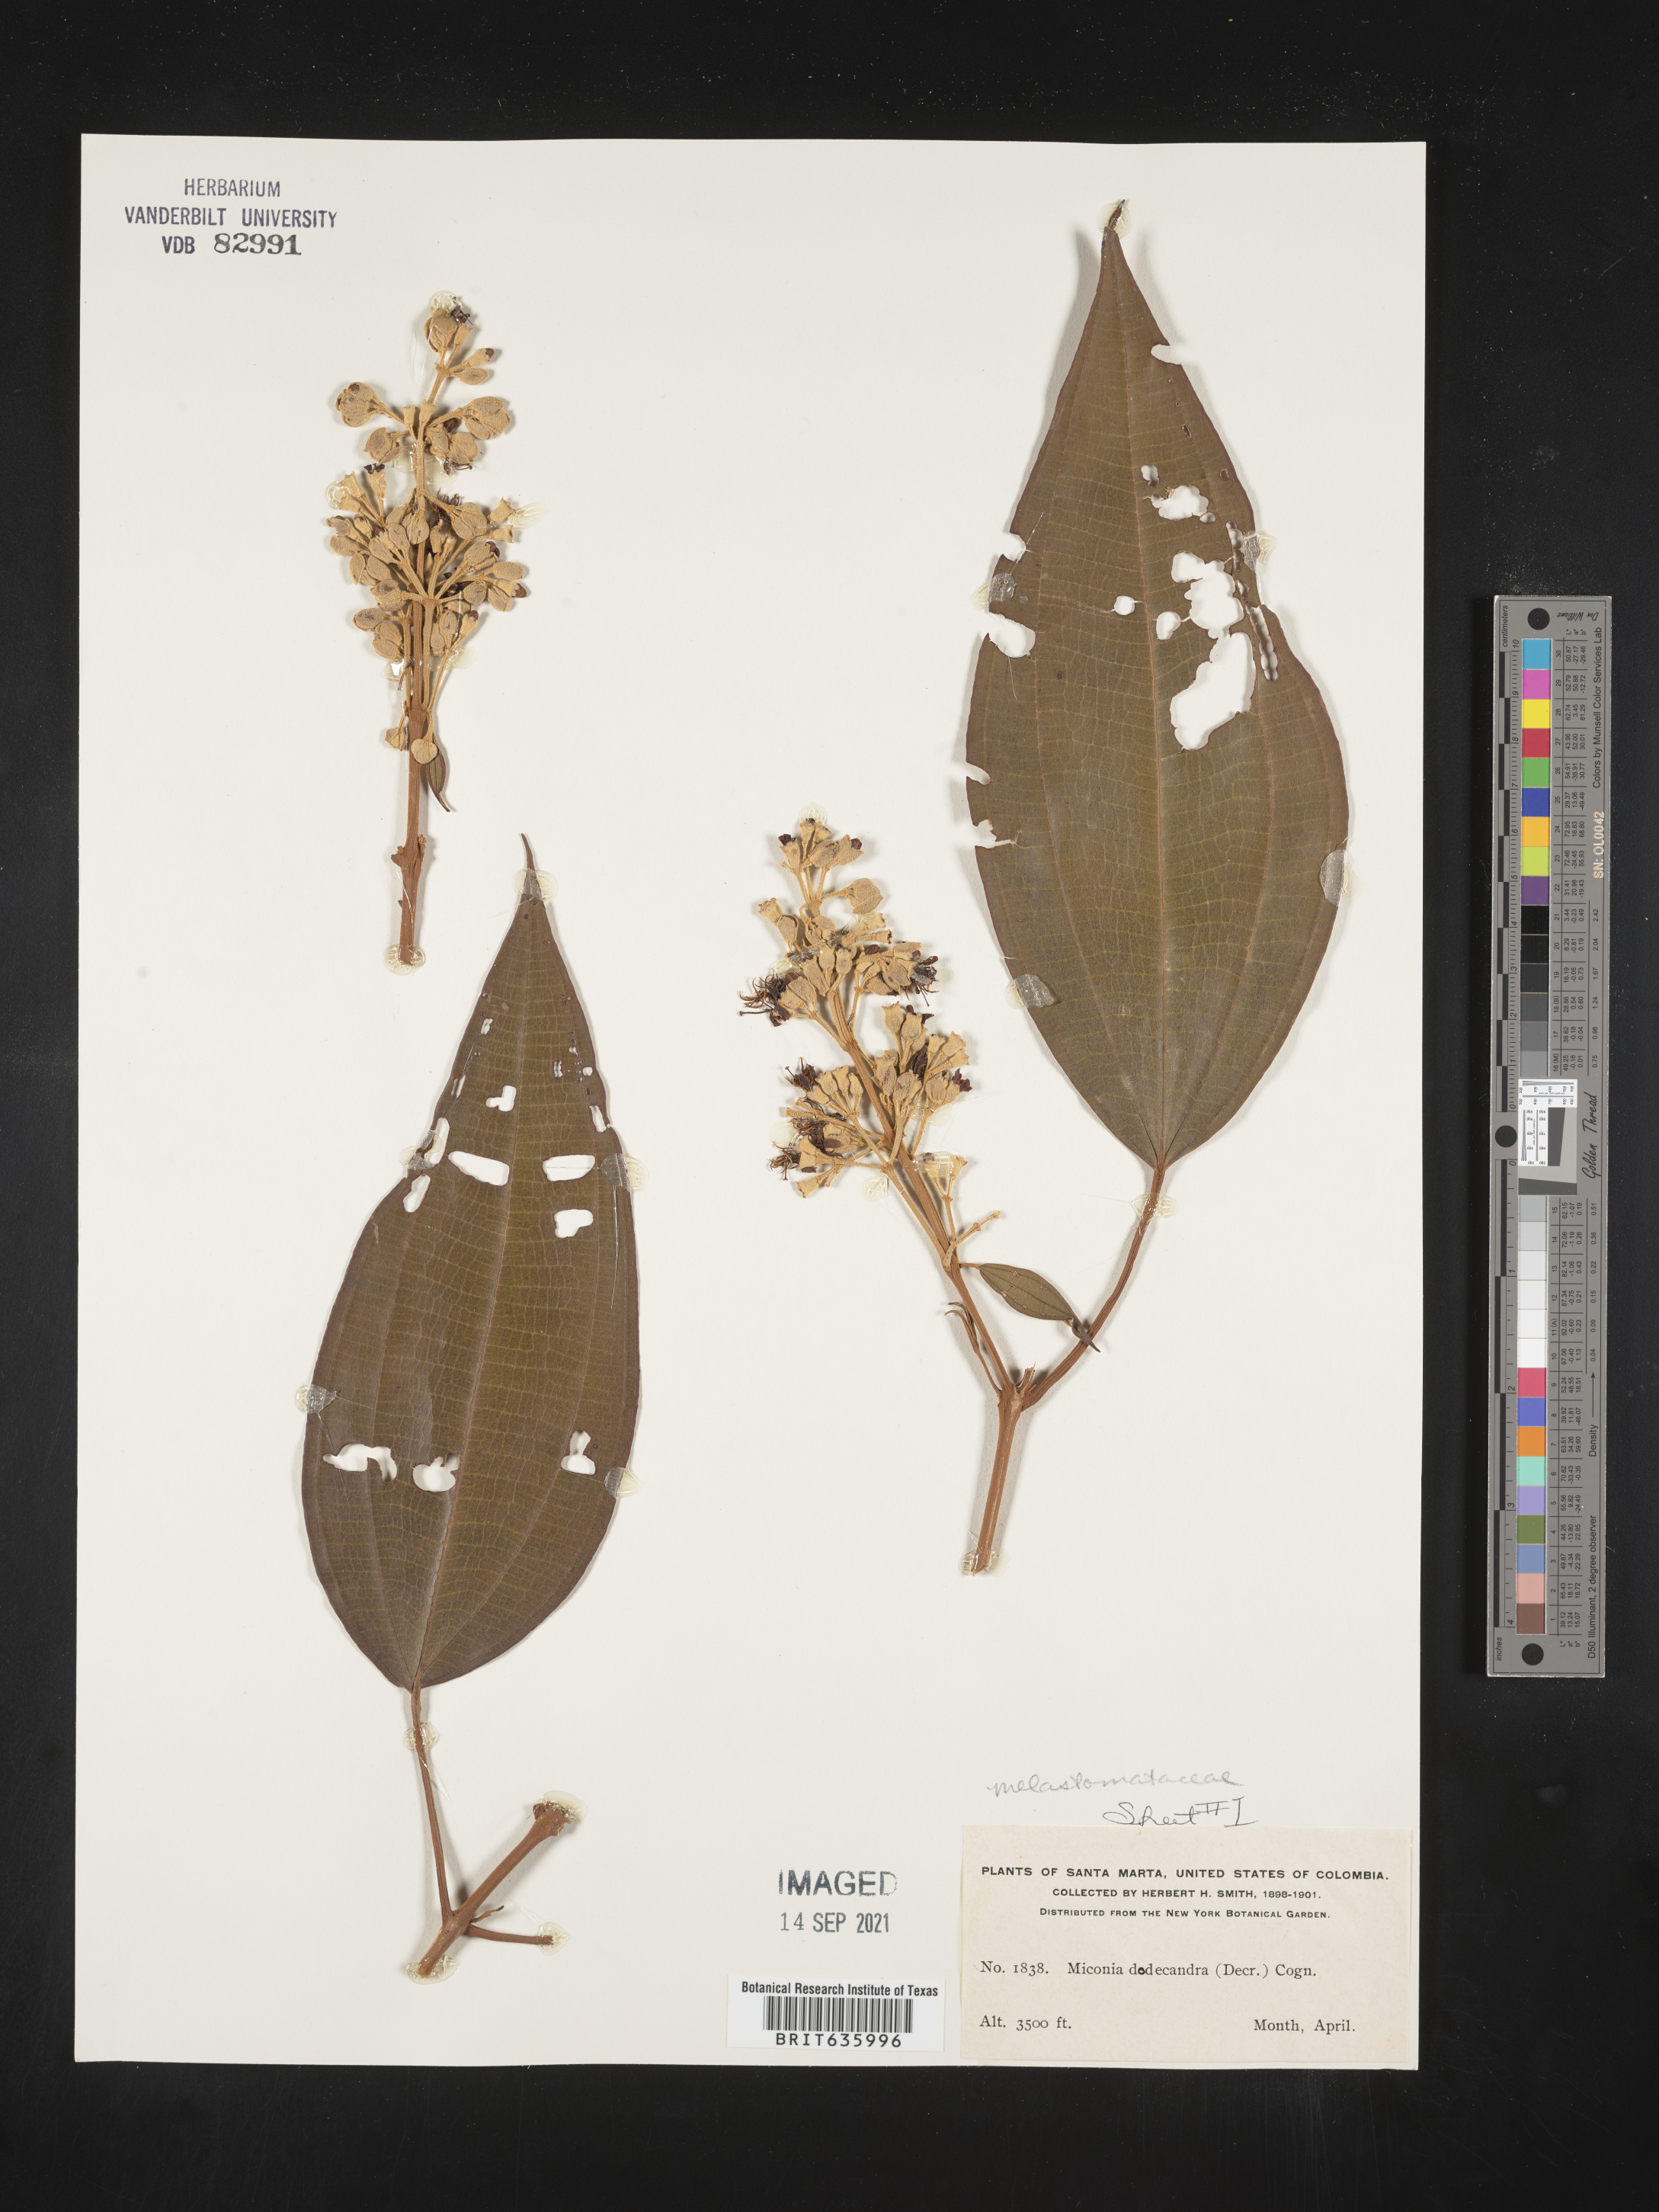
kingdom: Plantae
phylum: Tracheophyta
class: Magnoliopsida
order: Myrtales
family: Melastomataceae
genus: Miconia
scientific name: Miconia
